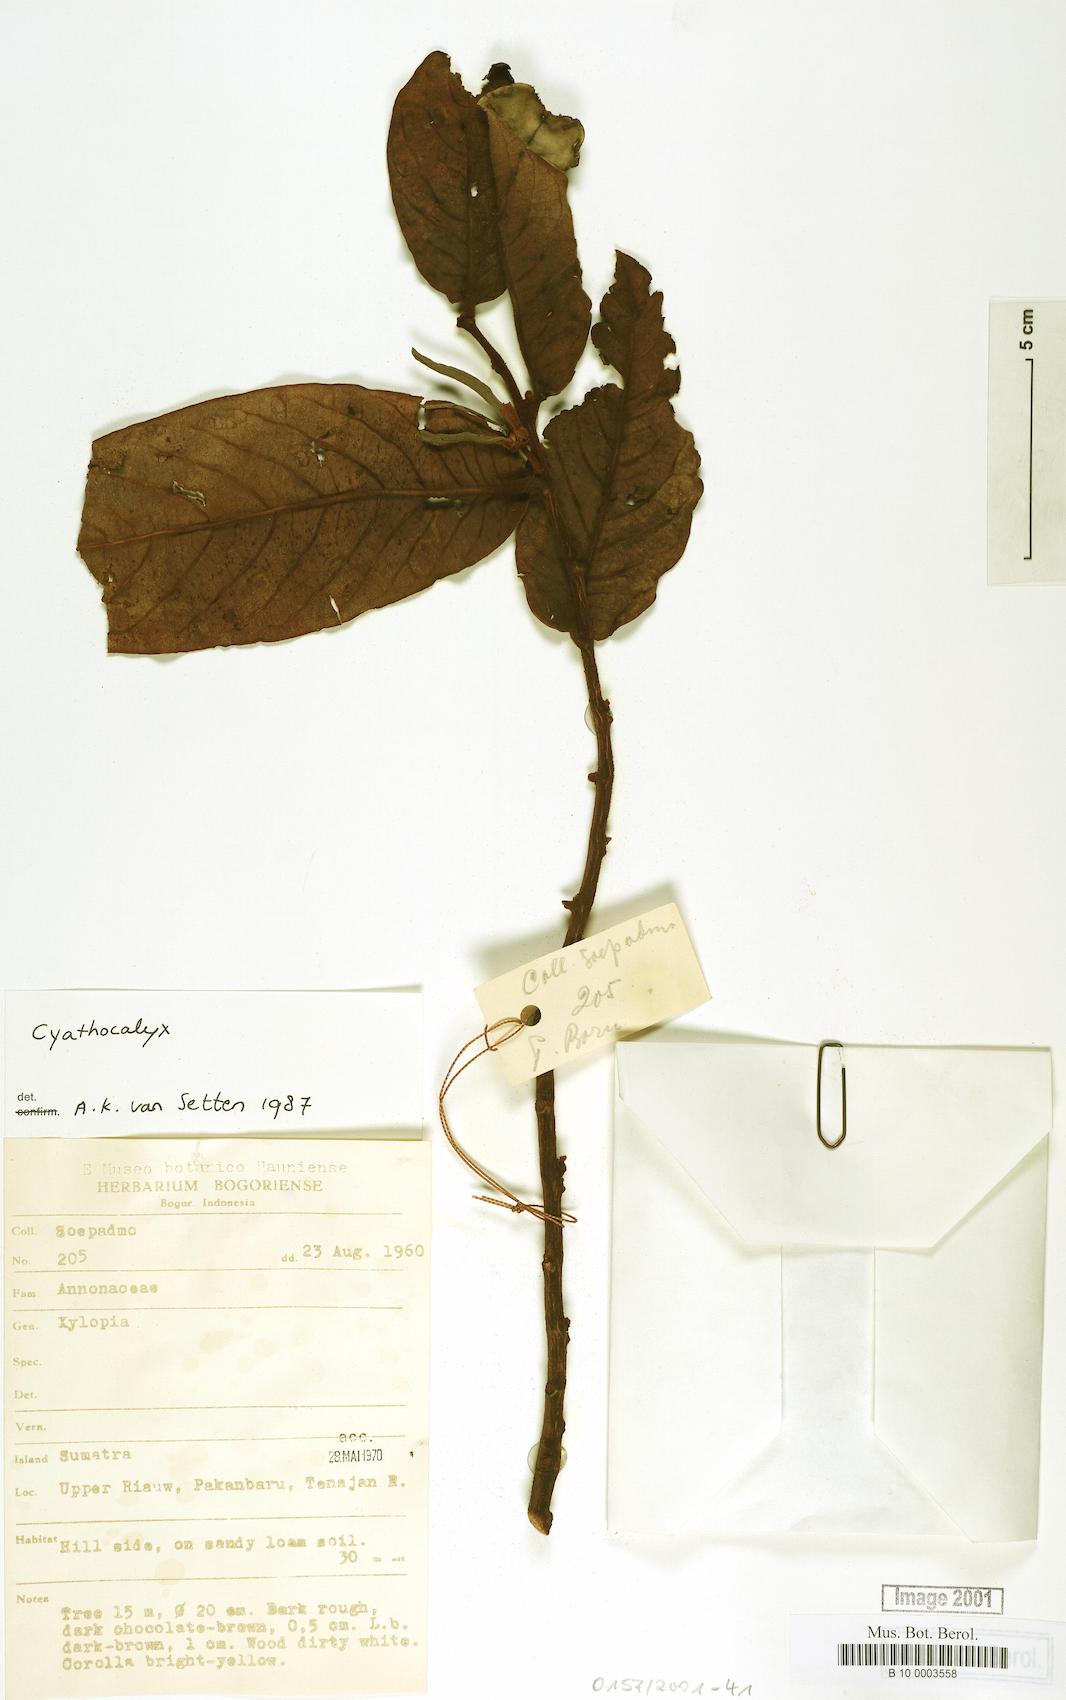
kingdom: Plantae
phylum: Tracheophyta
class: Magnoliopsida
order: Magnoliales
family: Annonaceae
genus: Cyathocalyx
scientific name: Cyathocalyx
